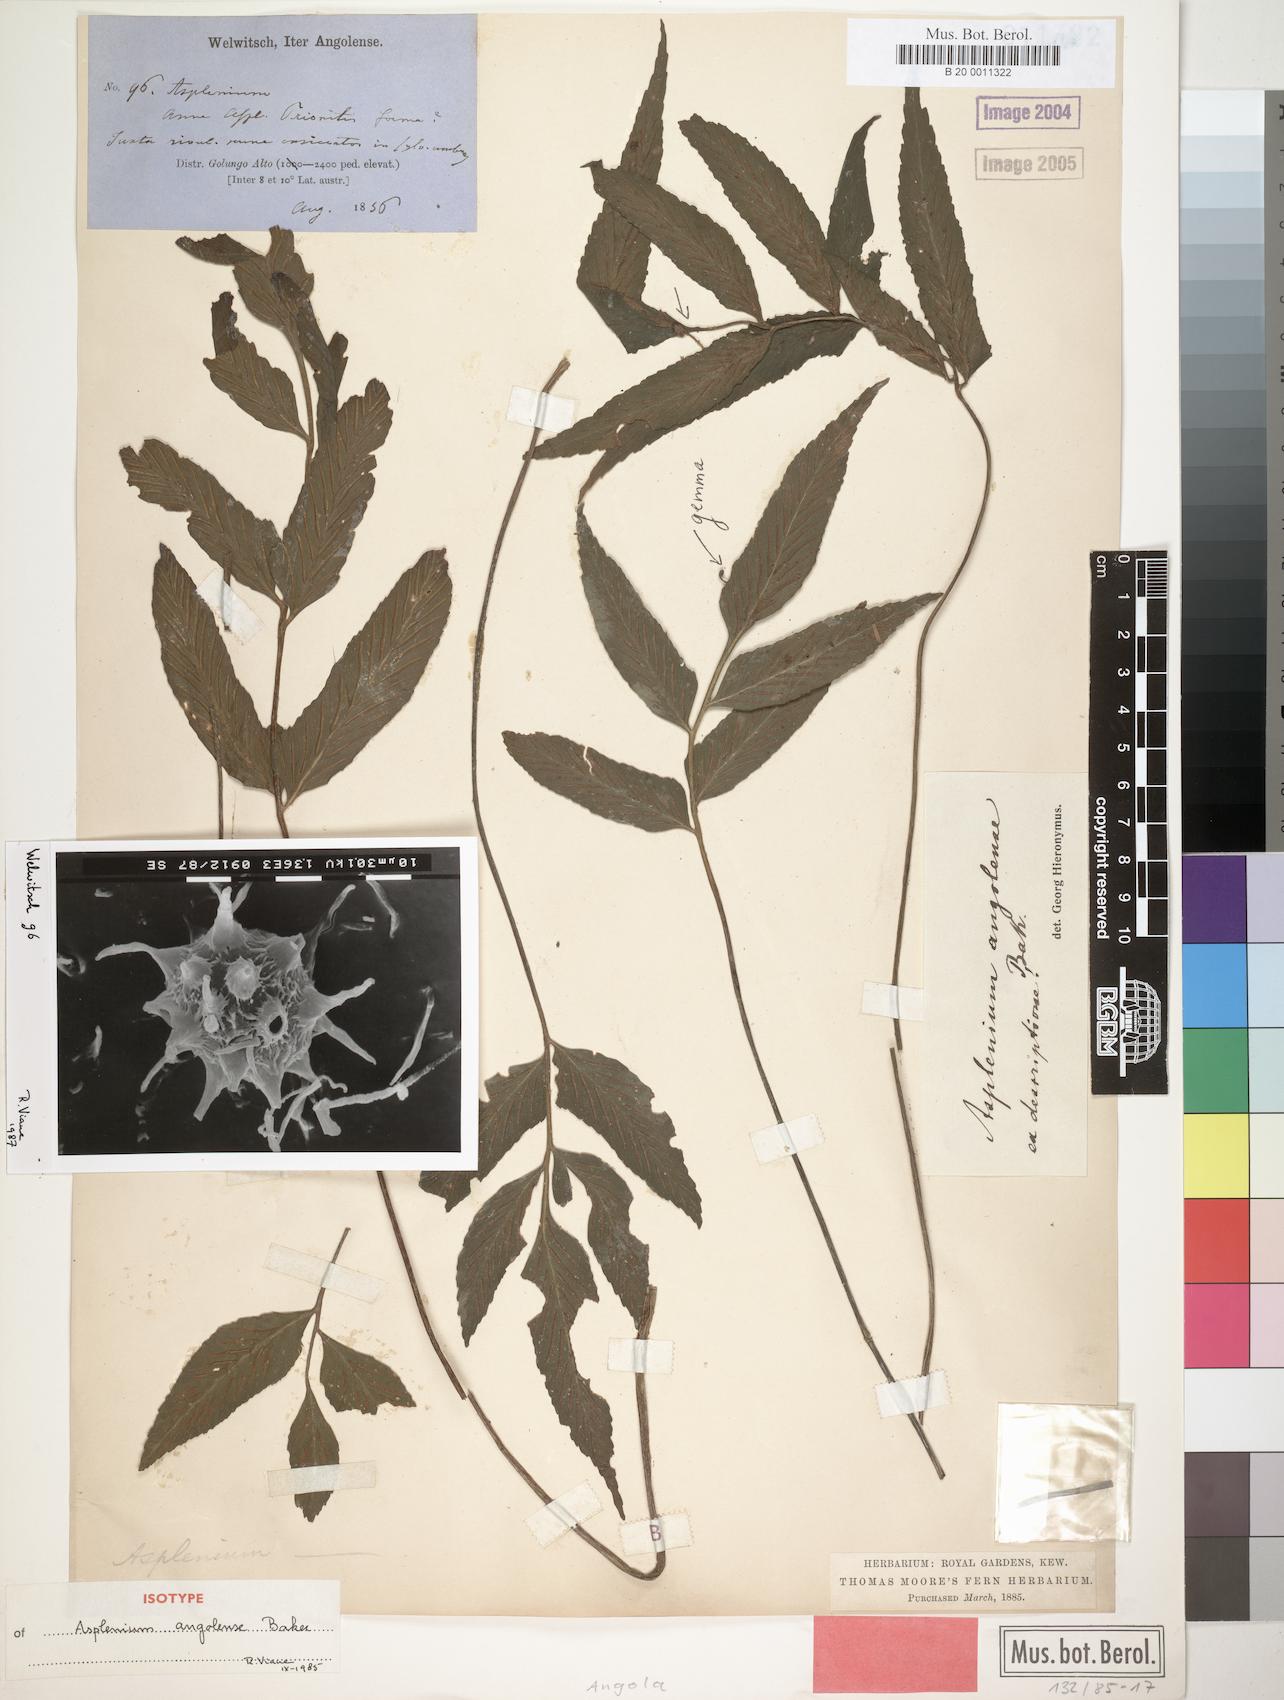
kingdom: Plantae
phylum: Tracheophyta
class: Polypodiopsida
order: Polypodiales
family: Aspleniaceae
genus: Asplenium
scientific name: Asplenium angolense
